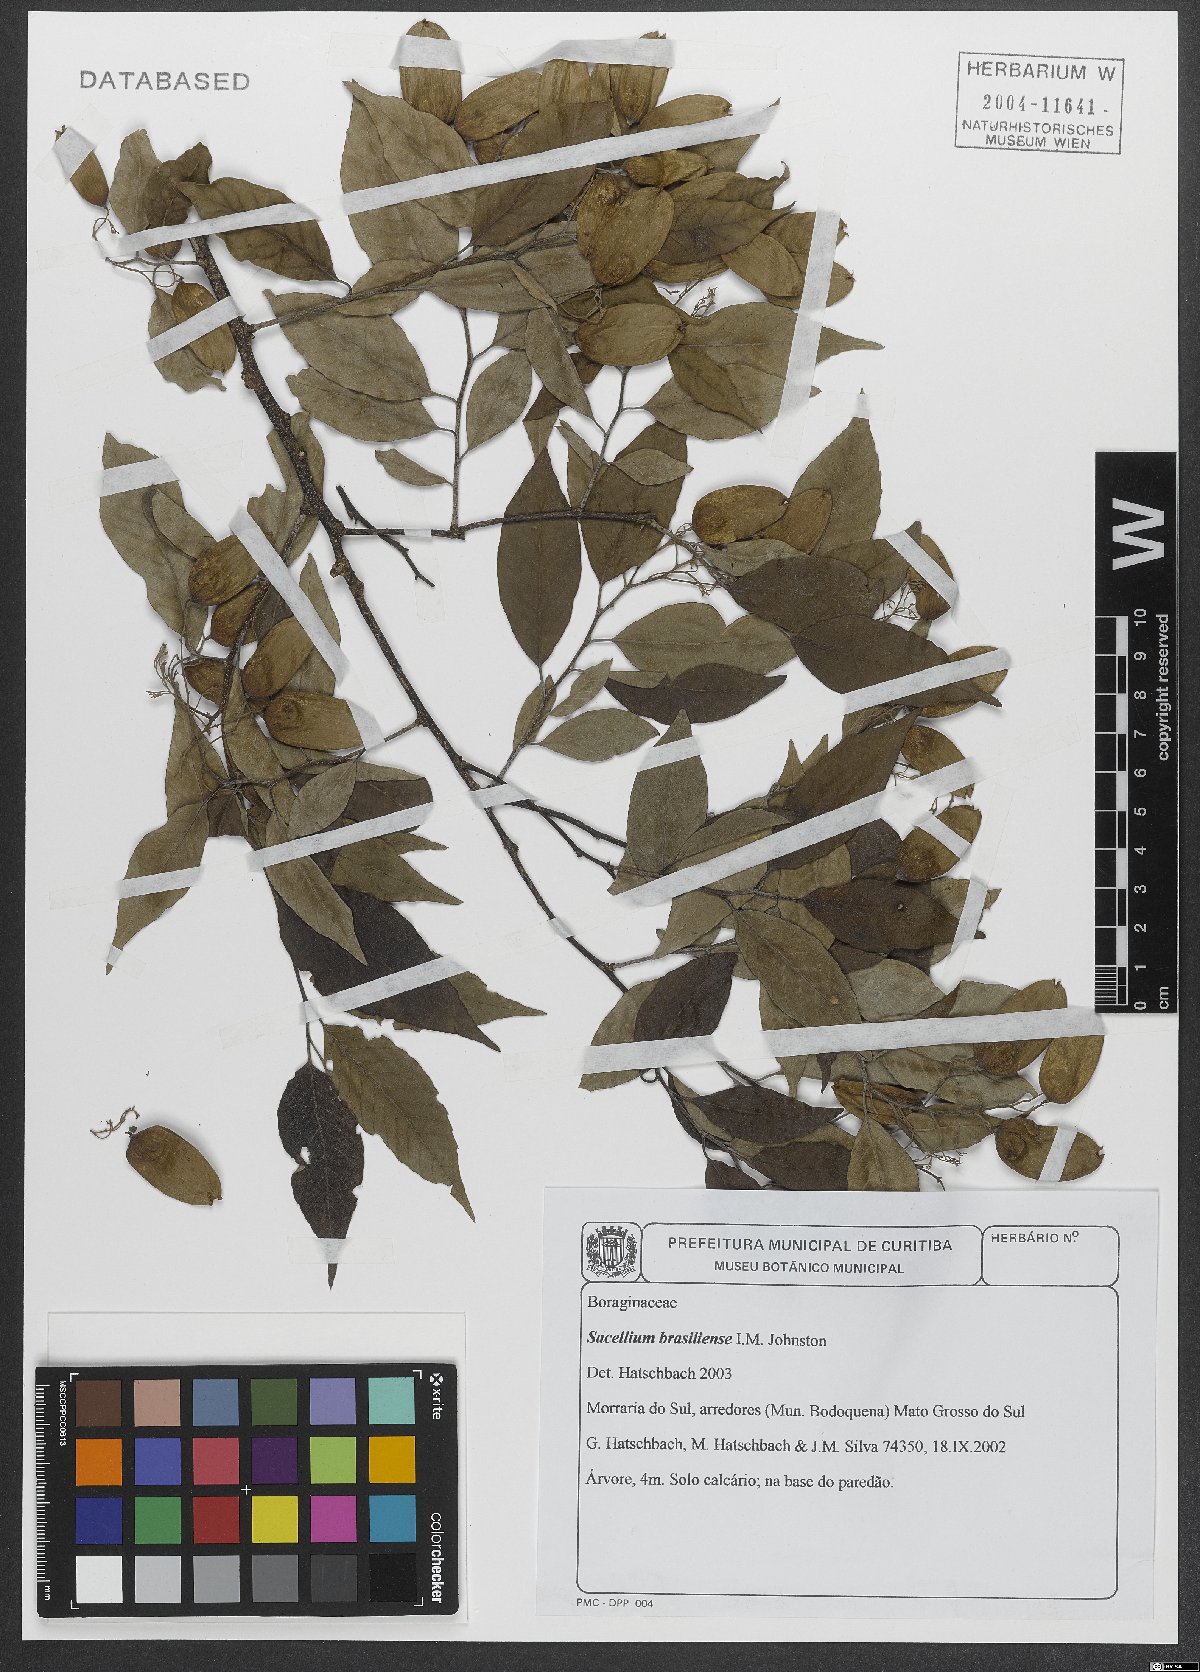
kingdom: Plantae
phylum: Tracheophyta
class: Magnoliopsida
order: Boraginales
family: Cordiaceae
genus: Cordia
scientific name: Cordia brasiliensis
